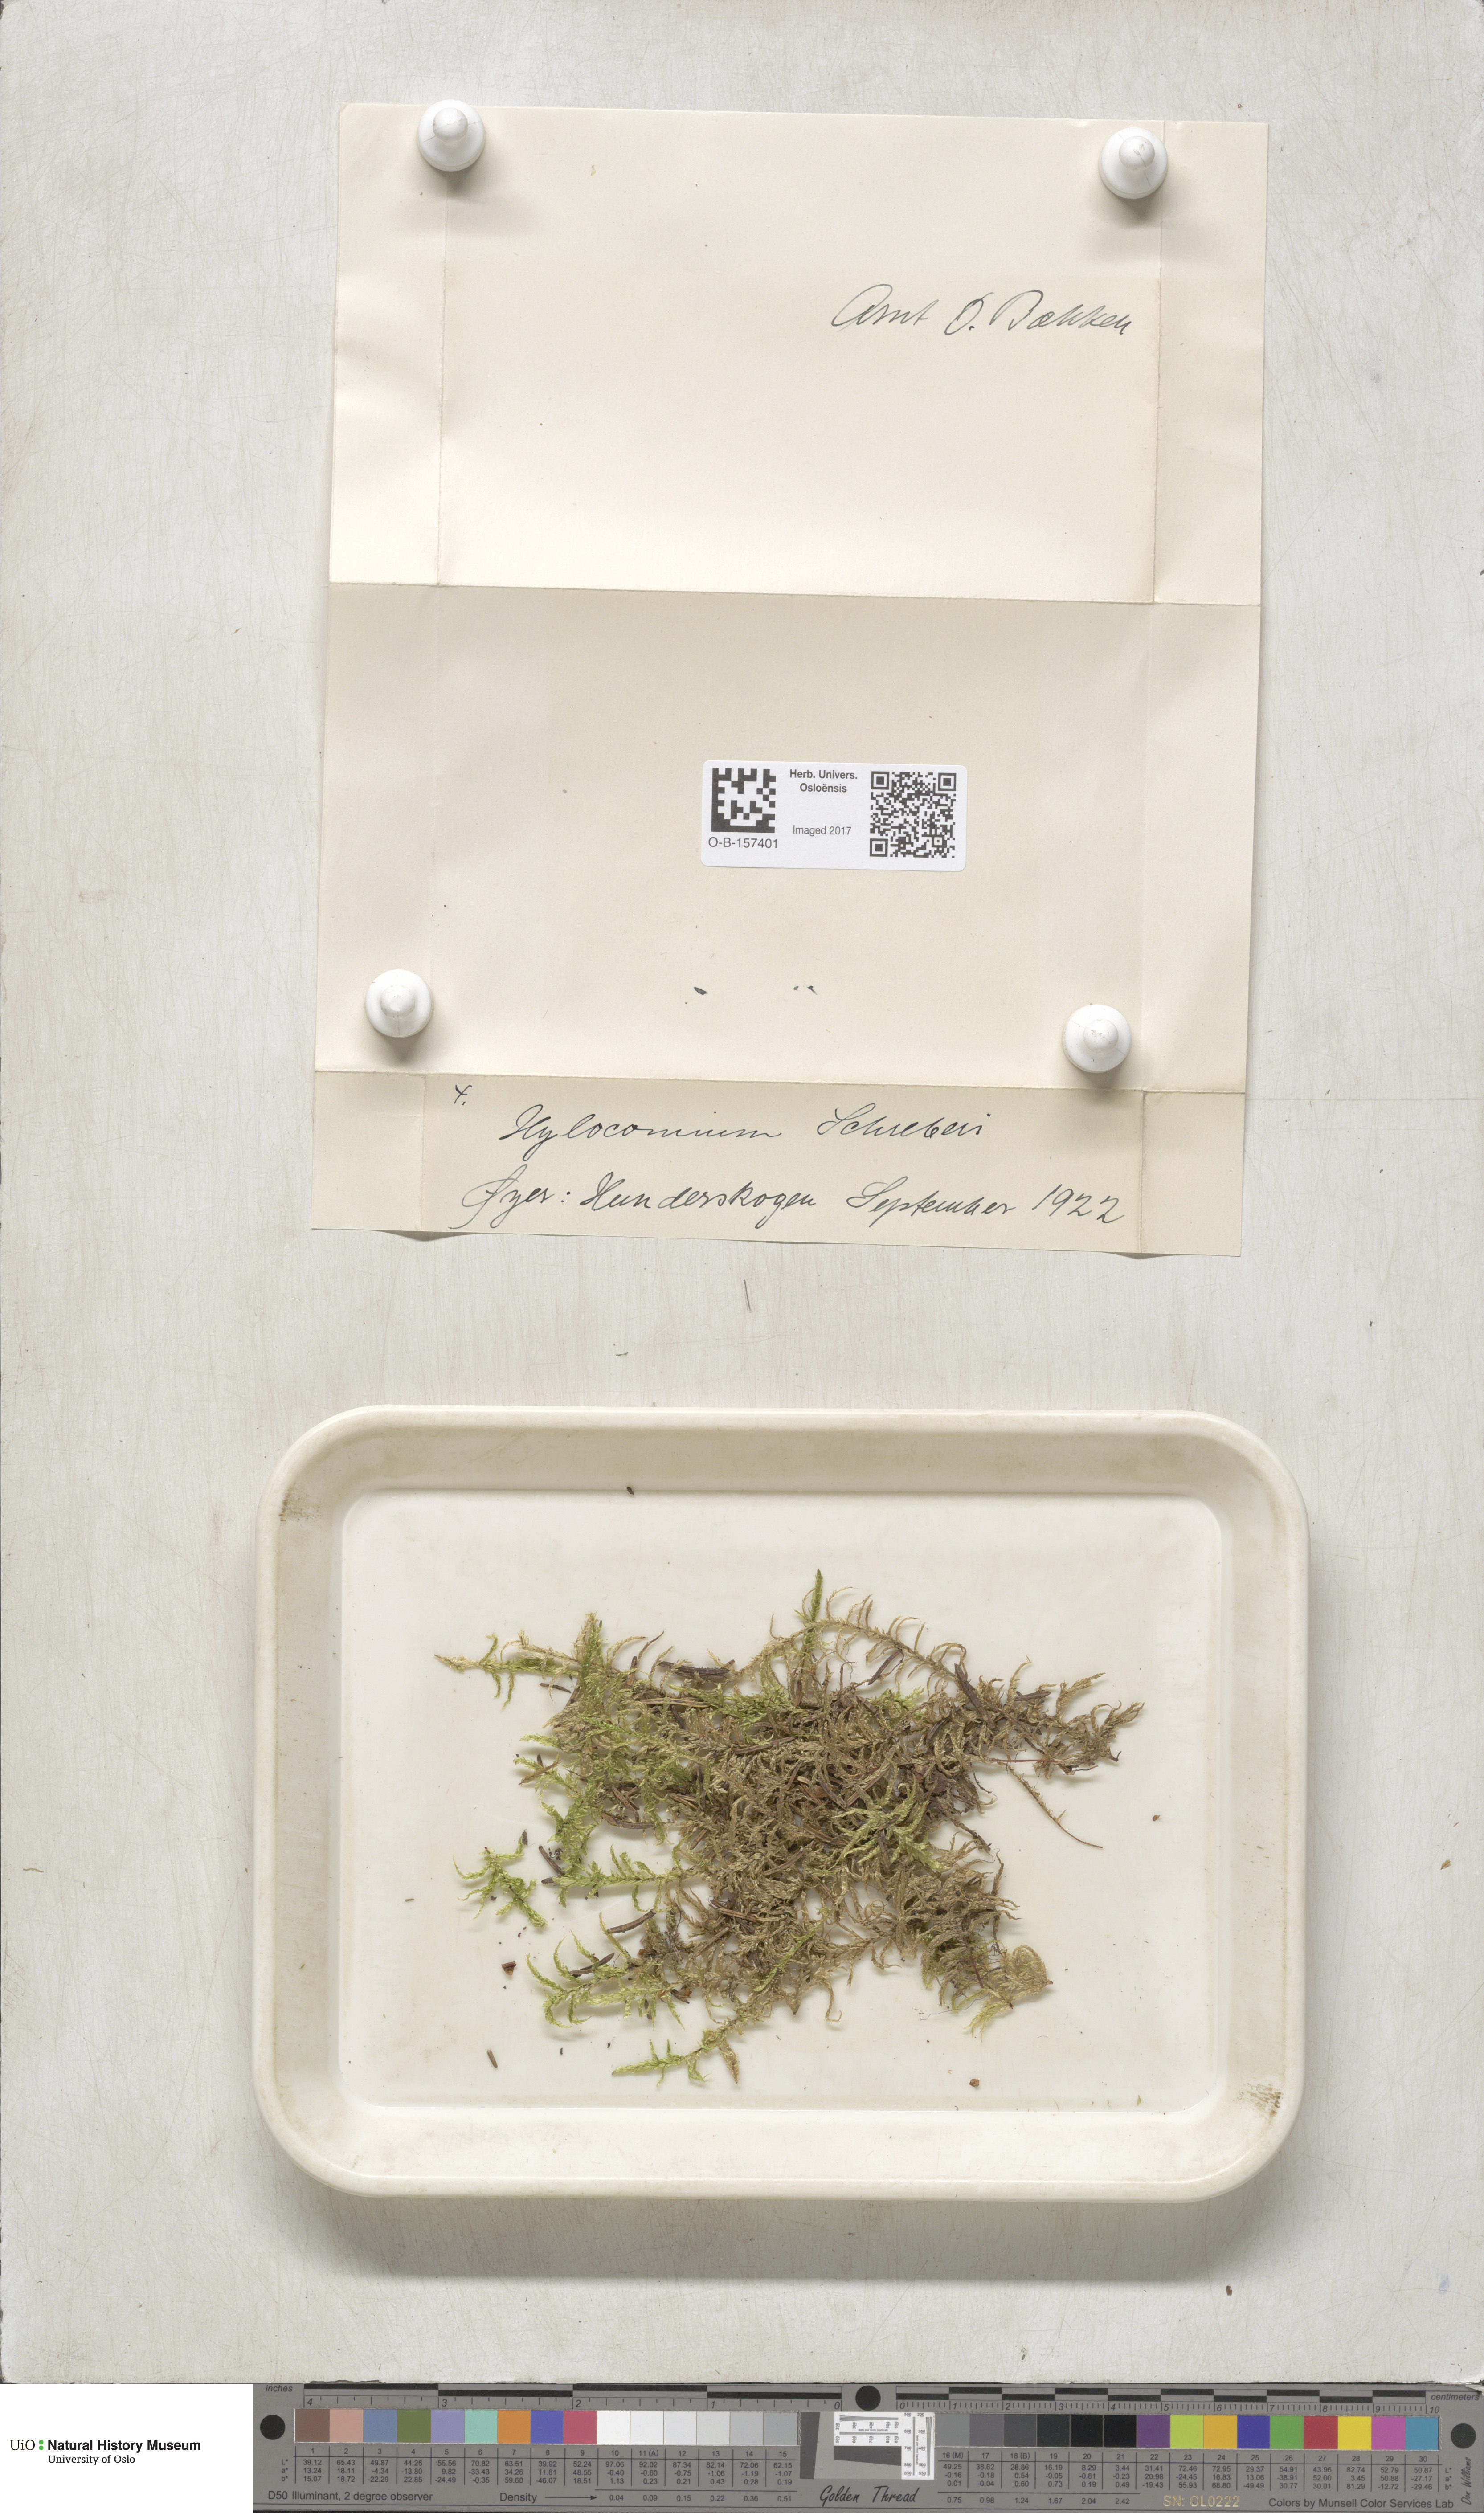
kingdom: Plantae
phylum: Bryophyta
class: Bryopsida
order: Hypnales
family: Hylocomiaceae
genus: Pleurozium
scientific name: Pleurozium schreberi
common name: Red-stemmed feather moss
